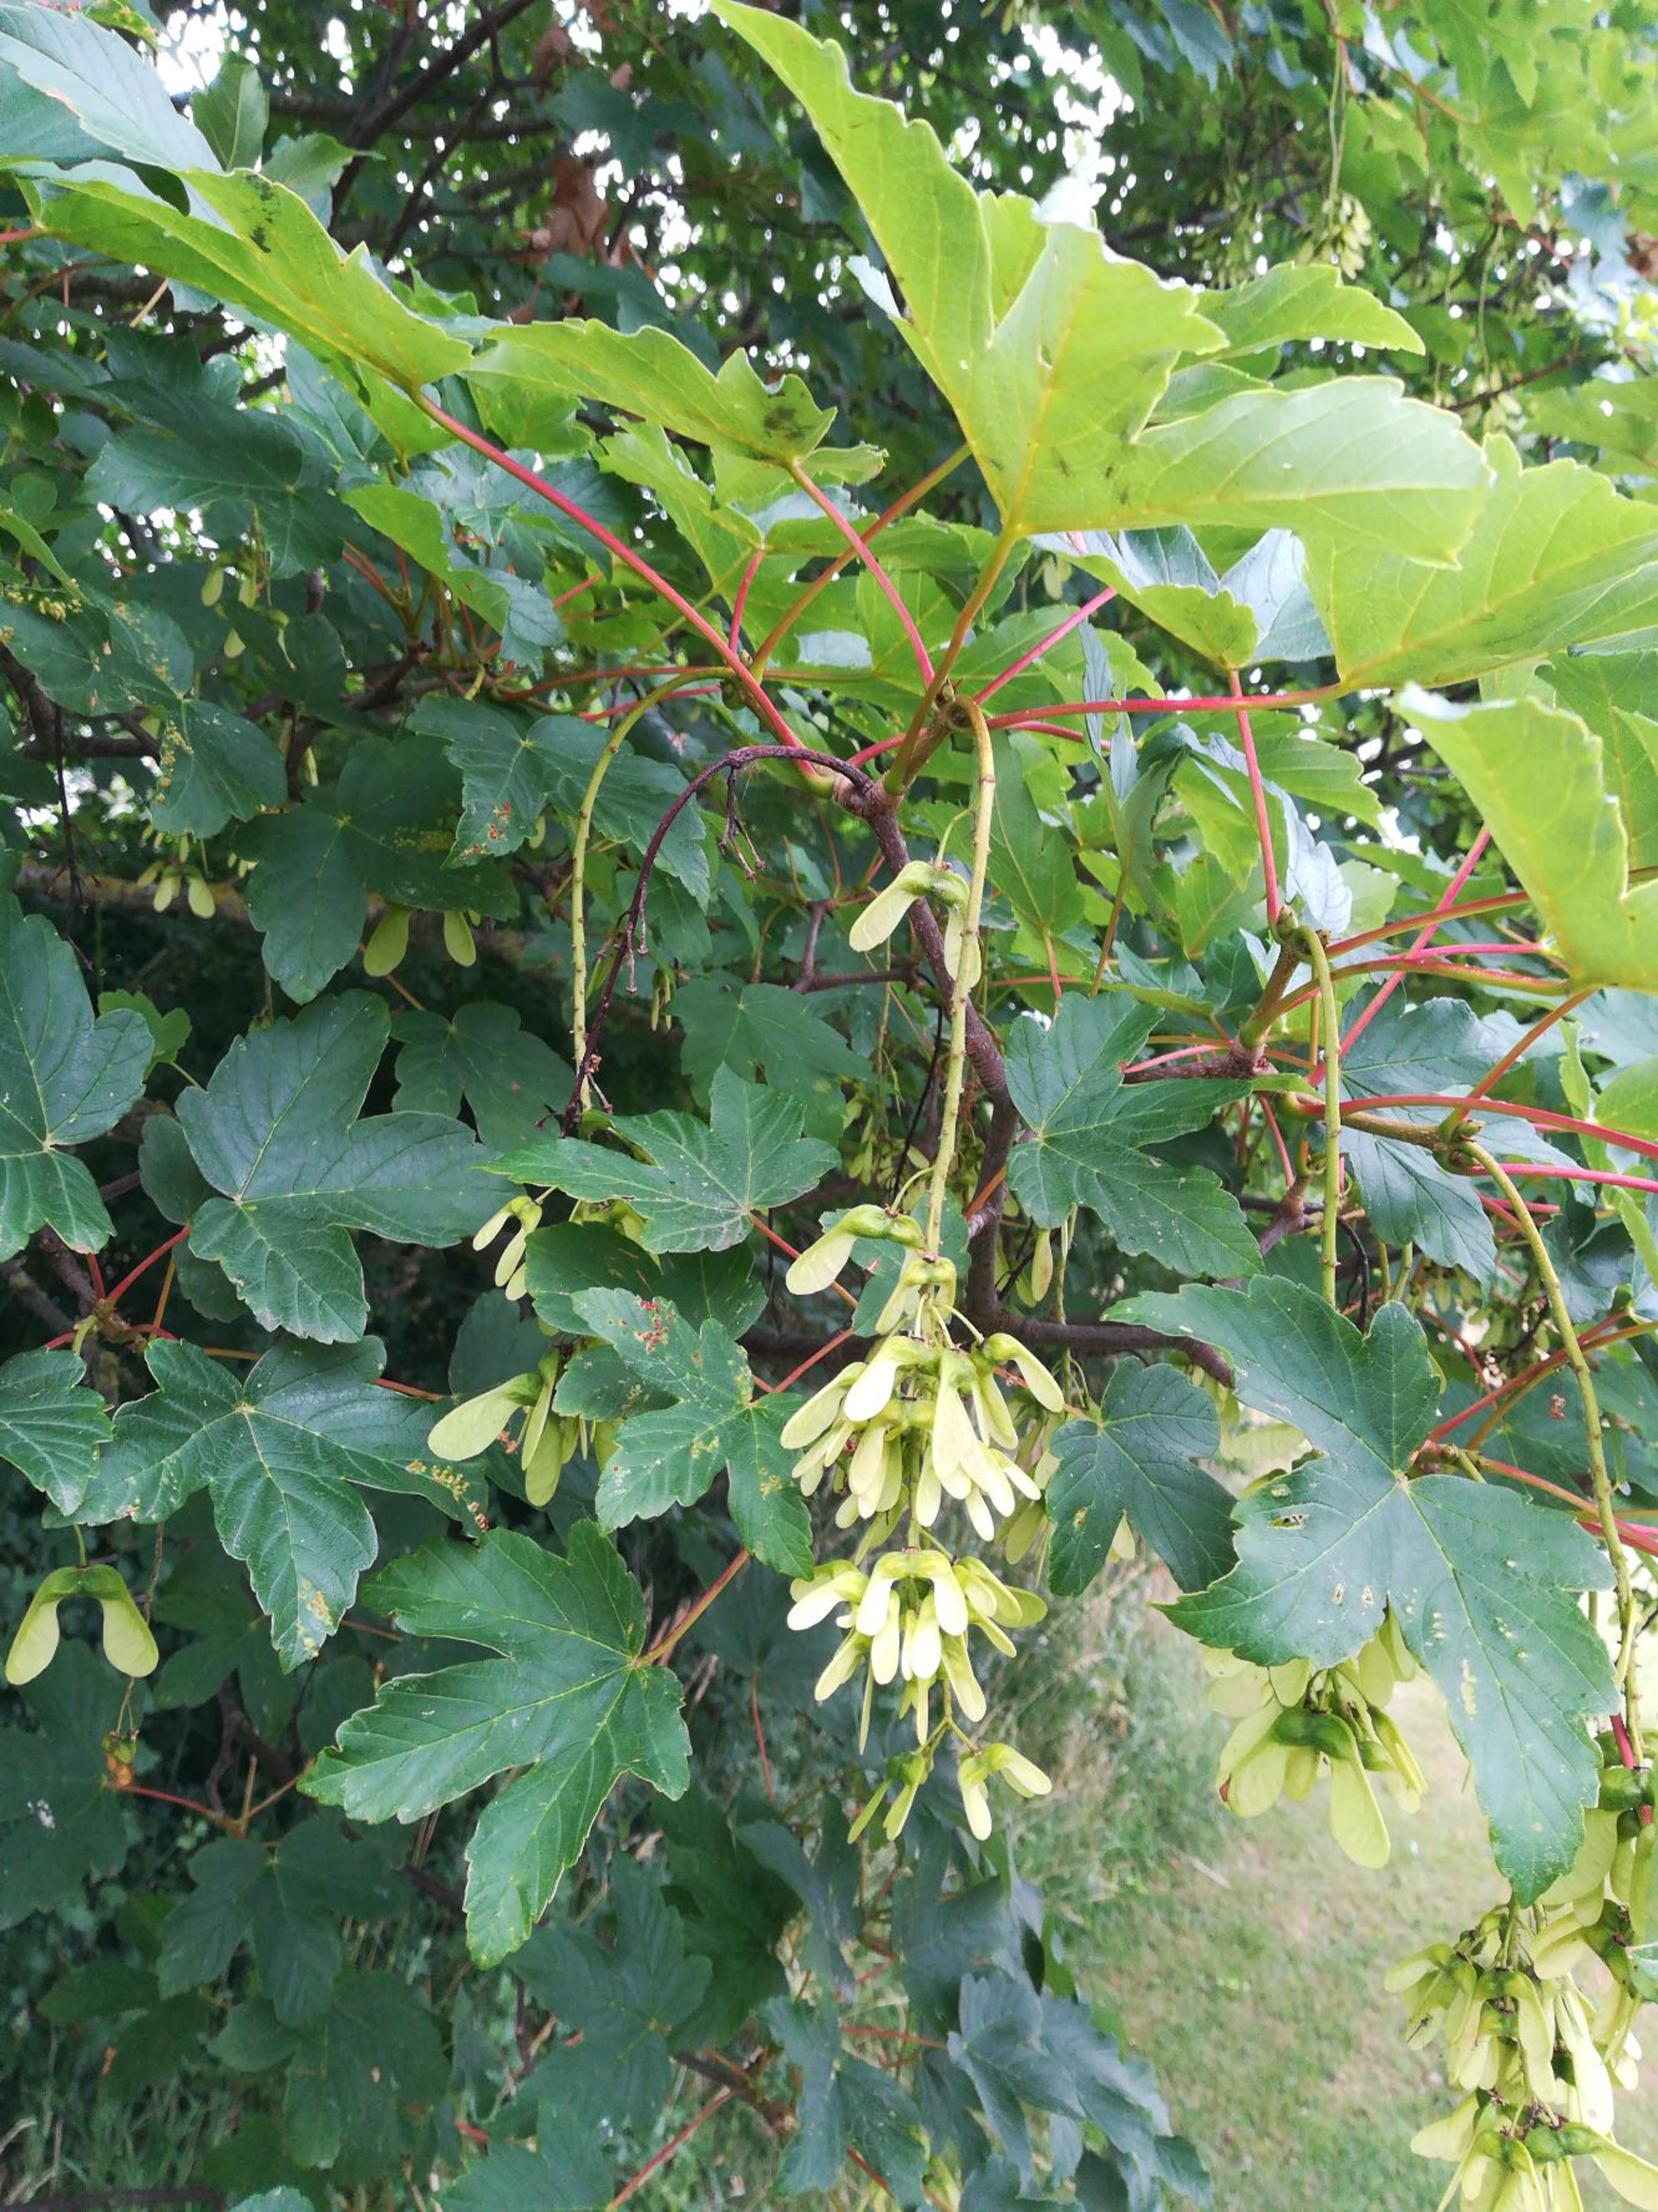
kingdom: Plantae
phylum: Tracheophyta
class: Magnoliopsida
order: Sapindales
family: Sapindaceae
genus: Acer
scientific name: Acer pseudoplatanus
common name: Ahorn
